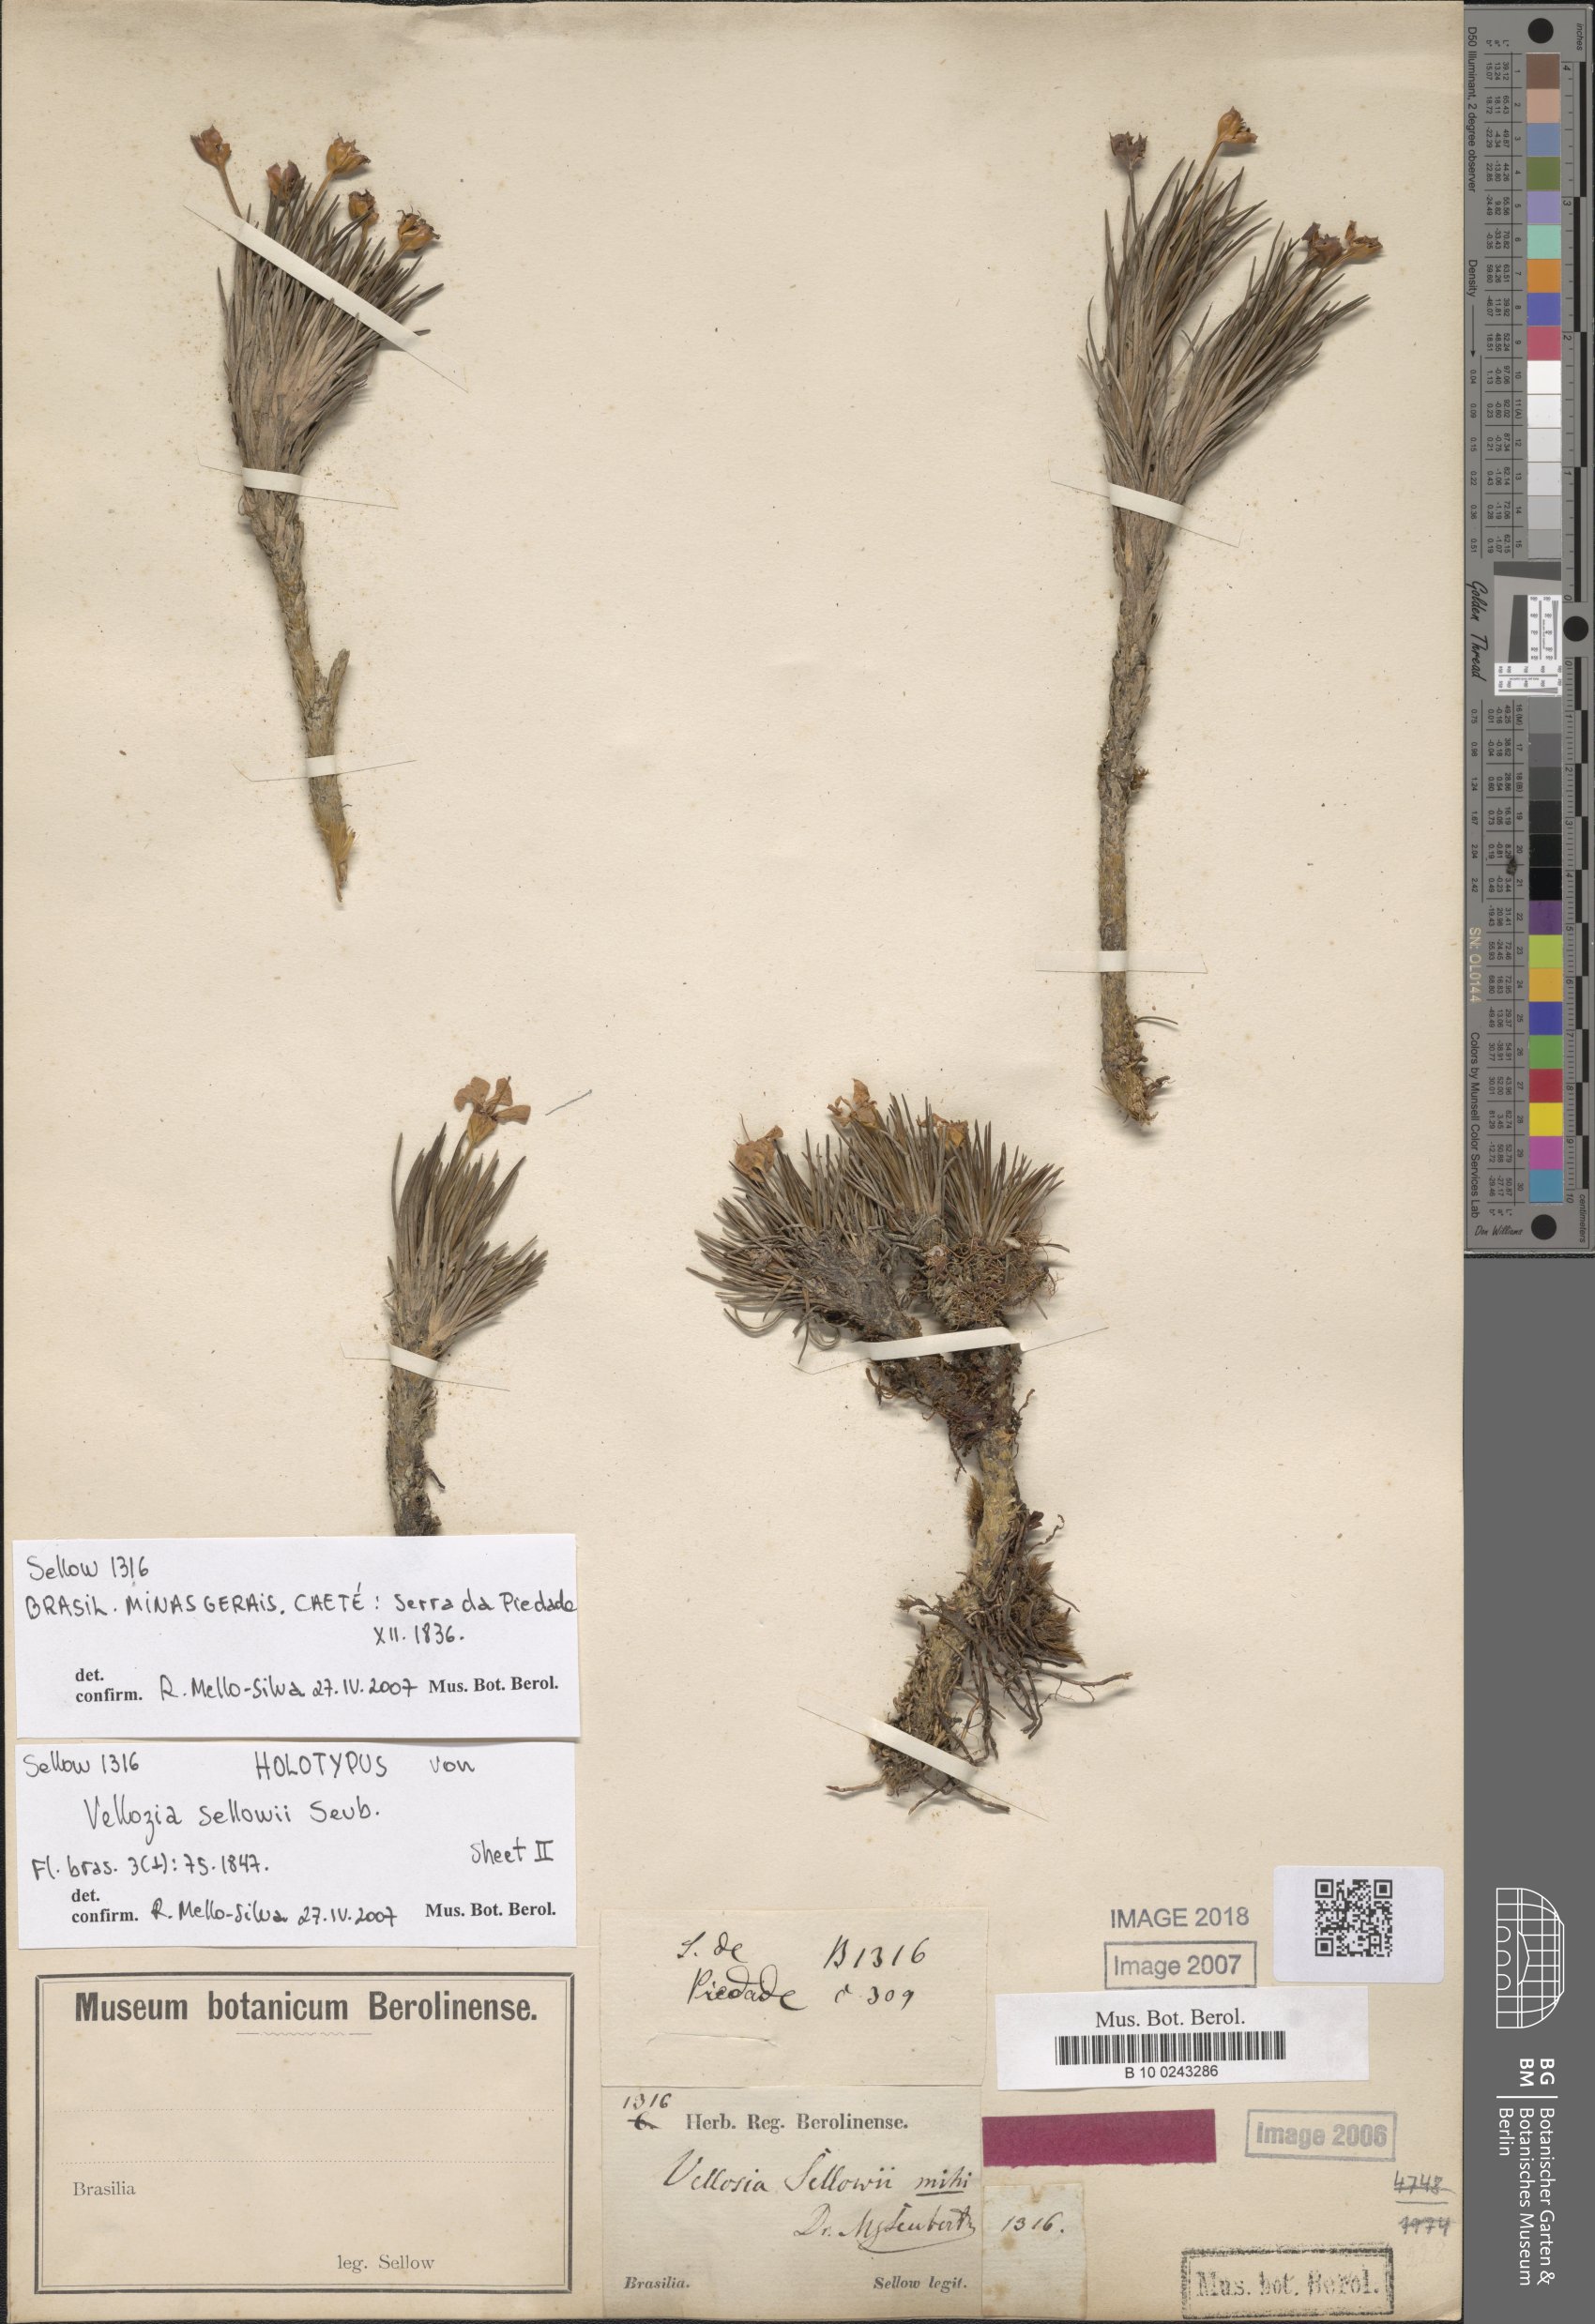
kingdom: Plantae
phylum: Tracheophyta
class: Liliopsida
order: Pandanales
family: Velloziaceae
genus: Vellozia
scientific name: Vellozia sellowii
